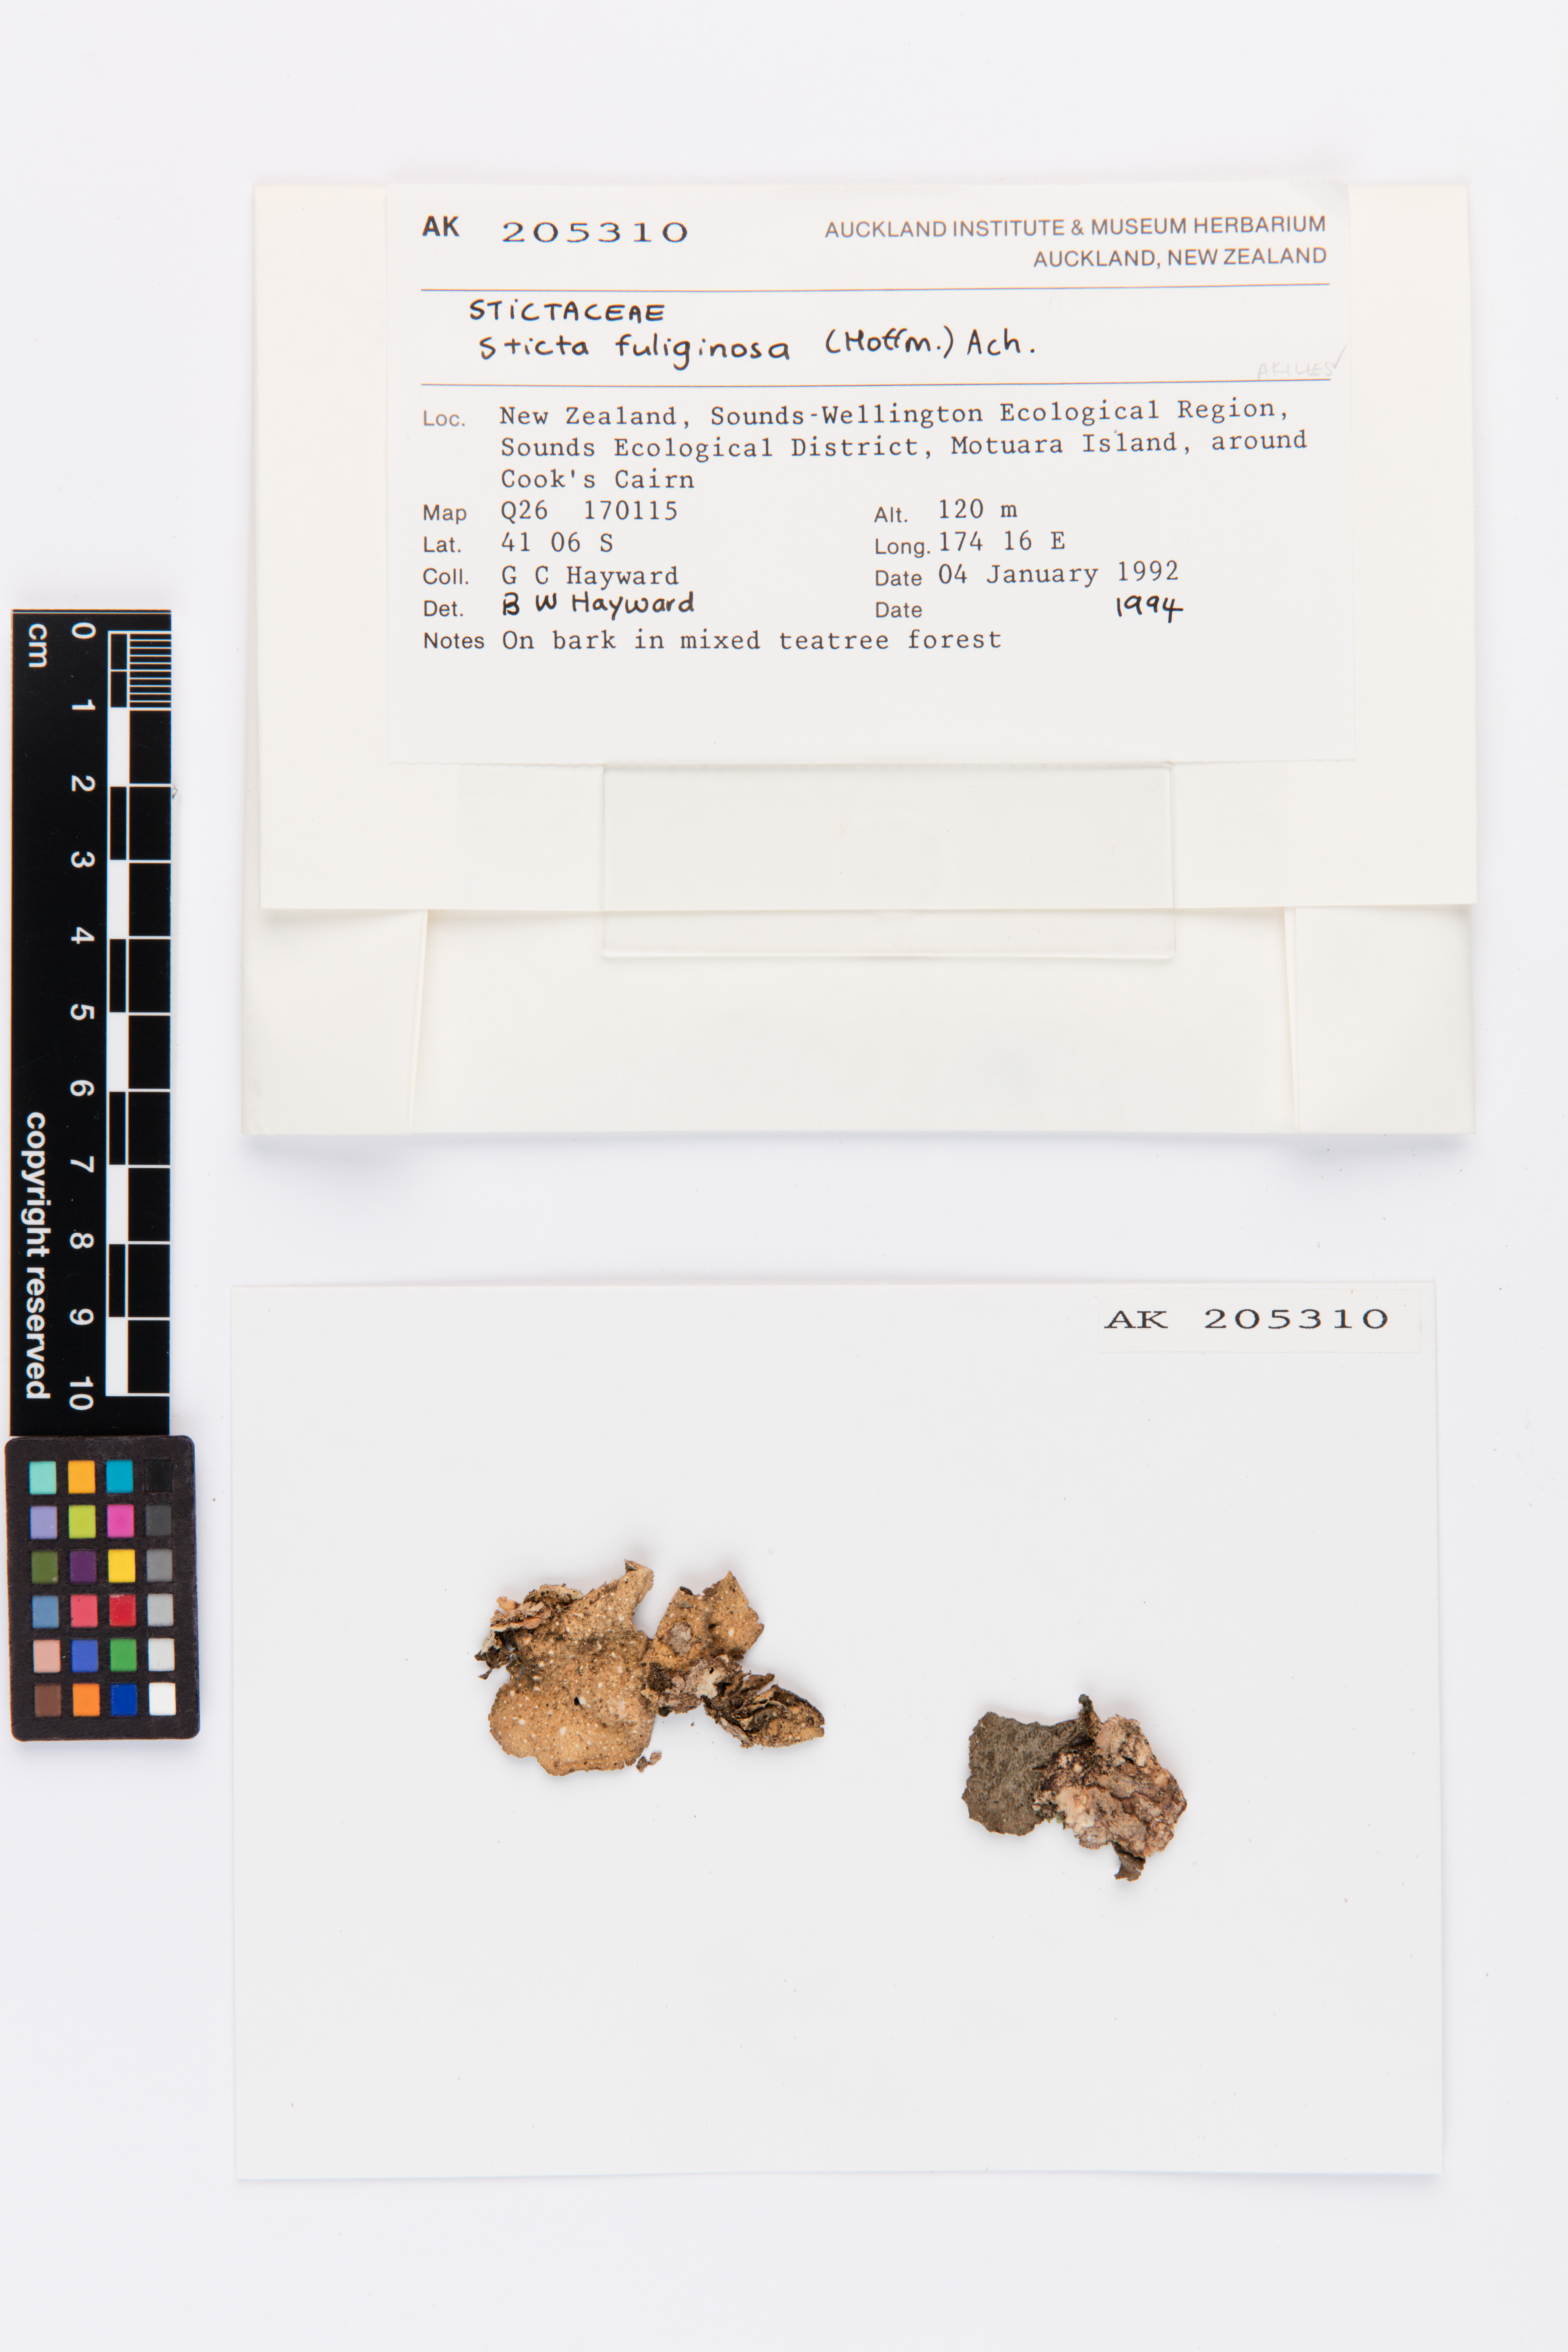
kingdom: Fungi
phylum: Ascomycota
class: Lecanoromycetes
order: Peltigerales
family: Lobariaceae
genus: Sticta
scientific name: Sticta fuliginosa
